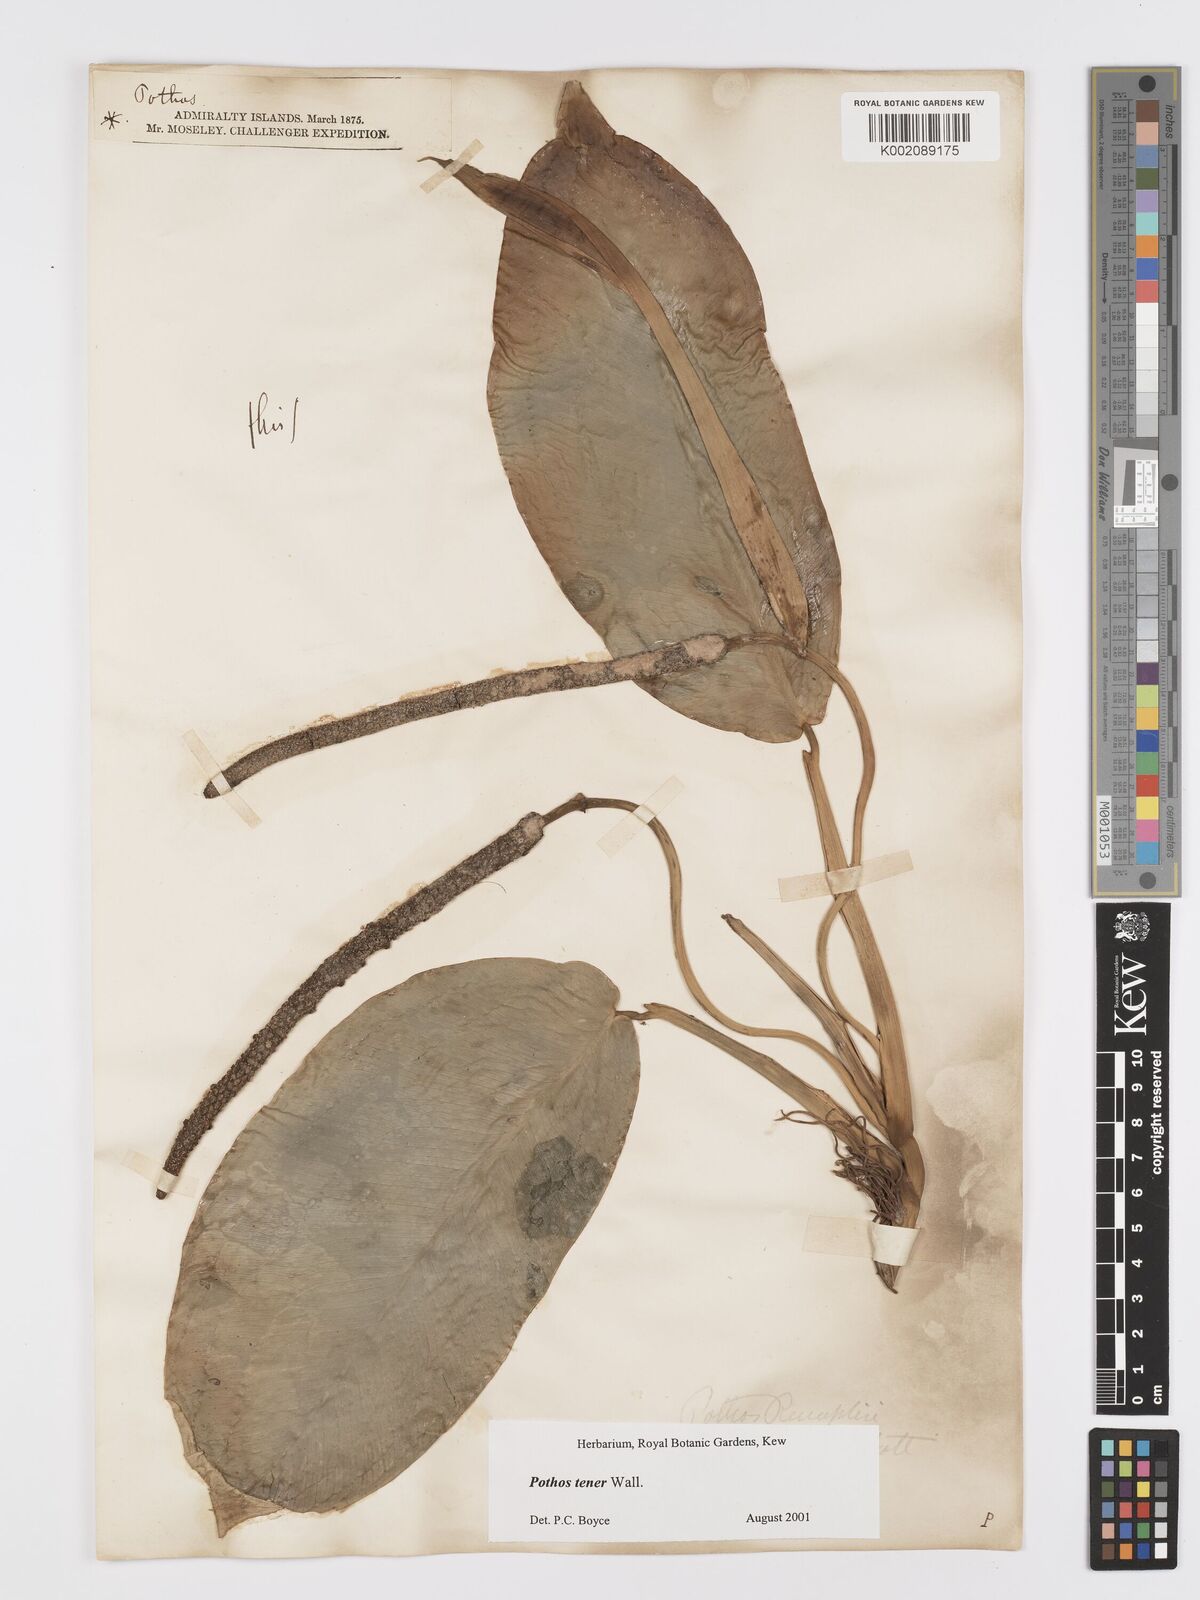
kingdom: Plantae
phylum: Tracheophyta
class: Liliopsida
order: Alismatales
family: Araceae
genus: Pothos
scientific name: Pothos tener
